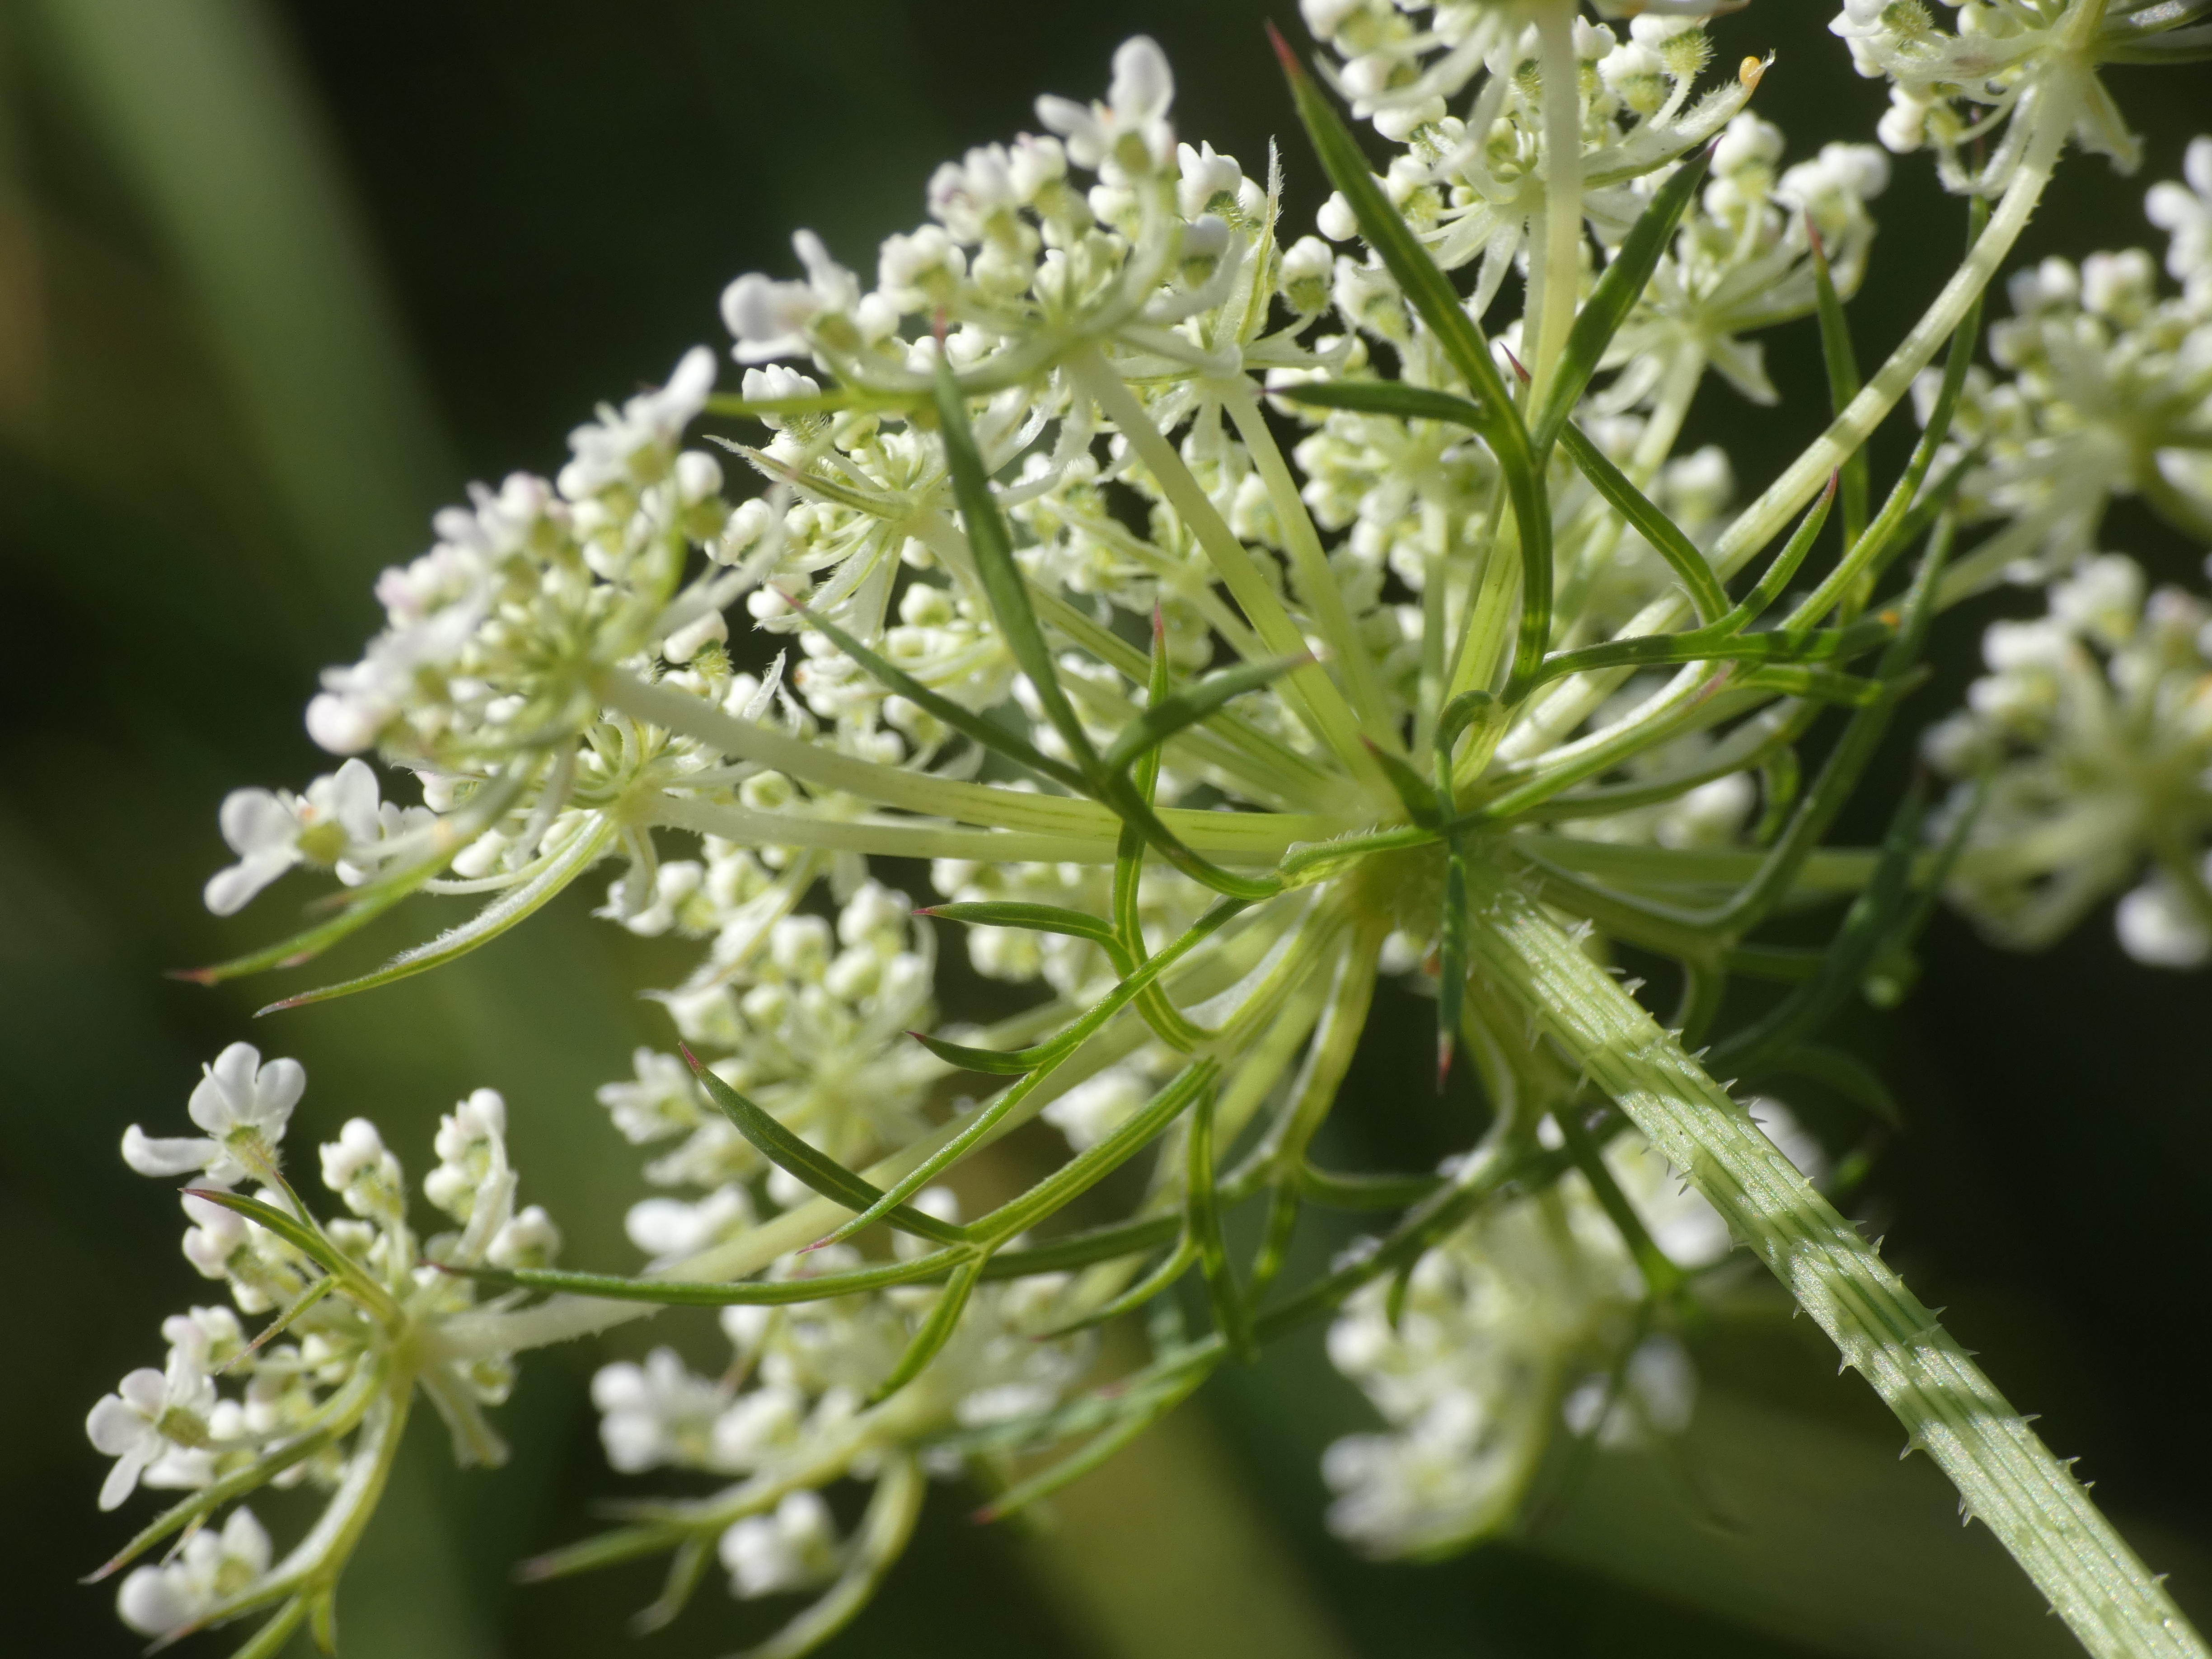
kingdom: Plantae
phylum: Tracheophyta
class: Magnoliopsida
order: Apiales
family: Apiaceae
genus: Daucus
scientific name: Daucus carota
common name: Vild gulerod
